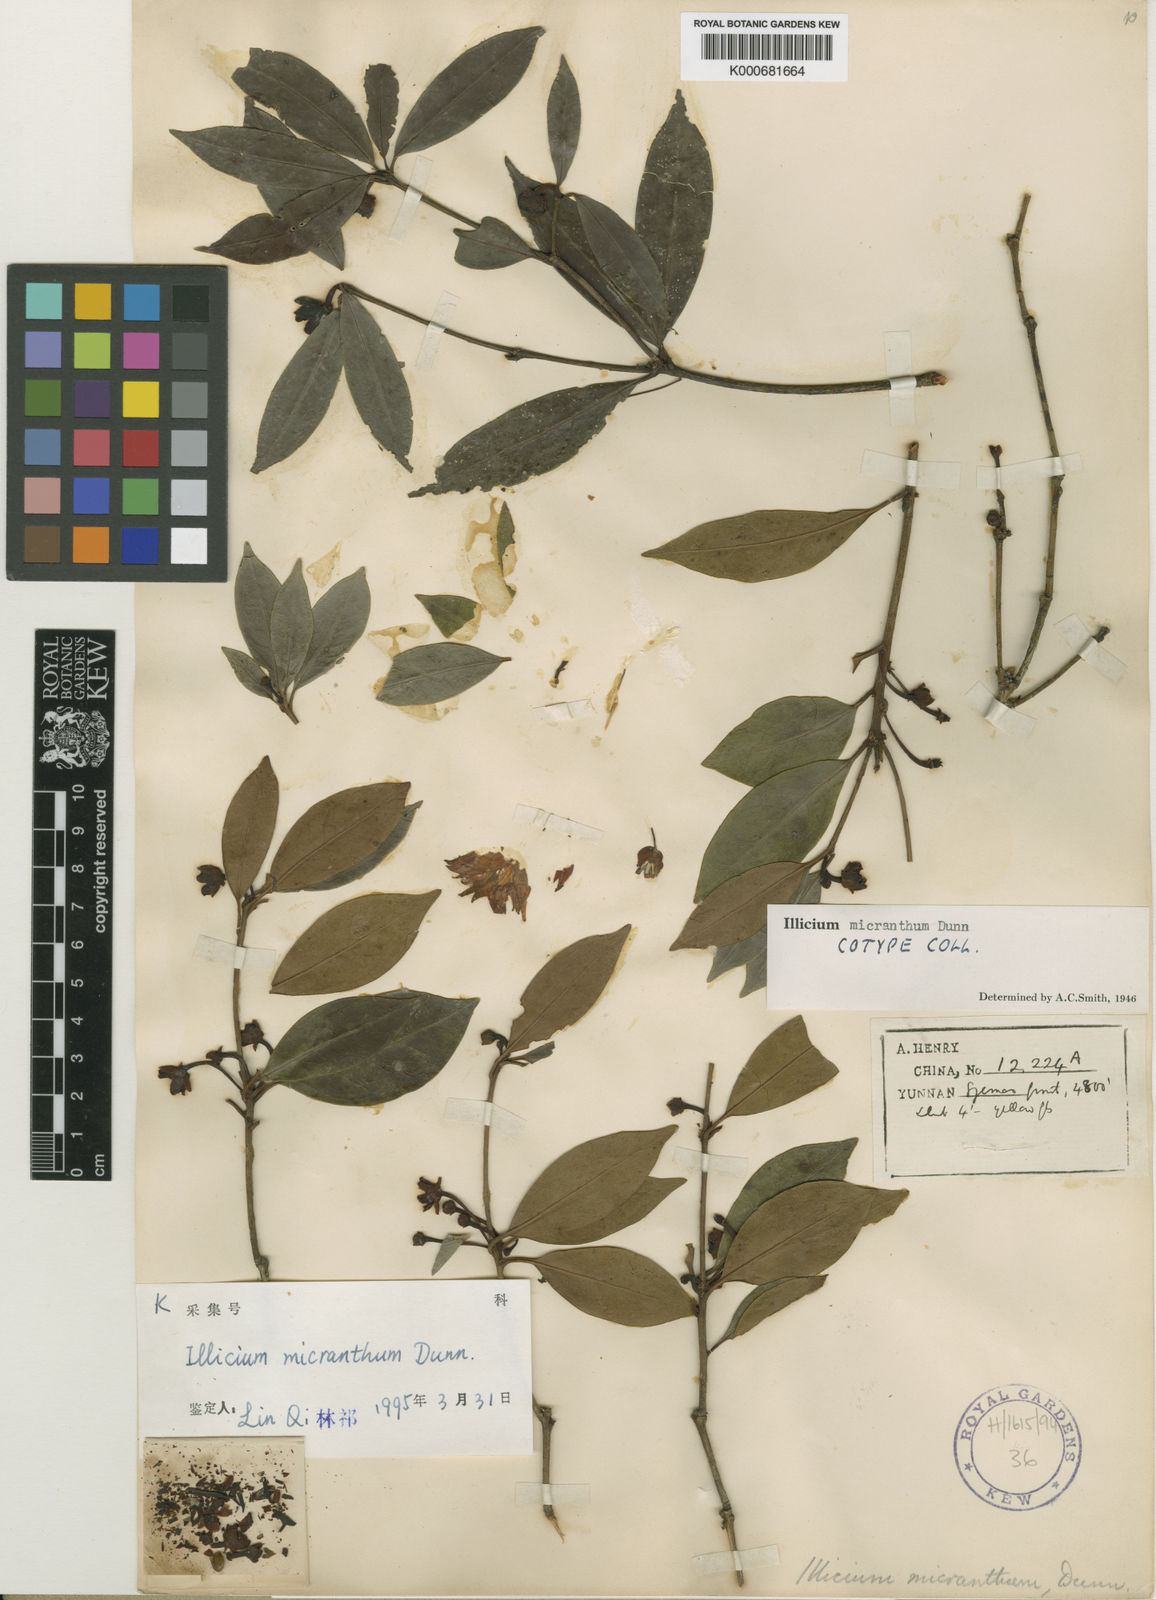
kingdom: Plantae
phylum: Tracheophyta
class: Magnoliopsida
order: Austrobaileyales
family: Schisandraceae
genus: Illicium
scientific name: Illicium micranthum
